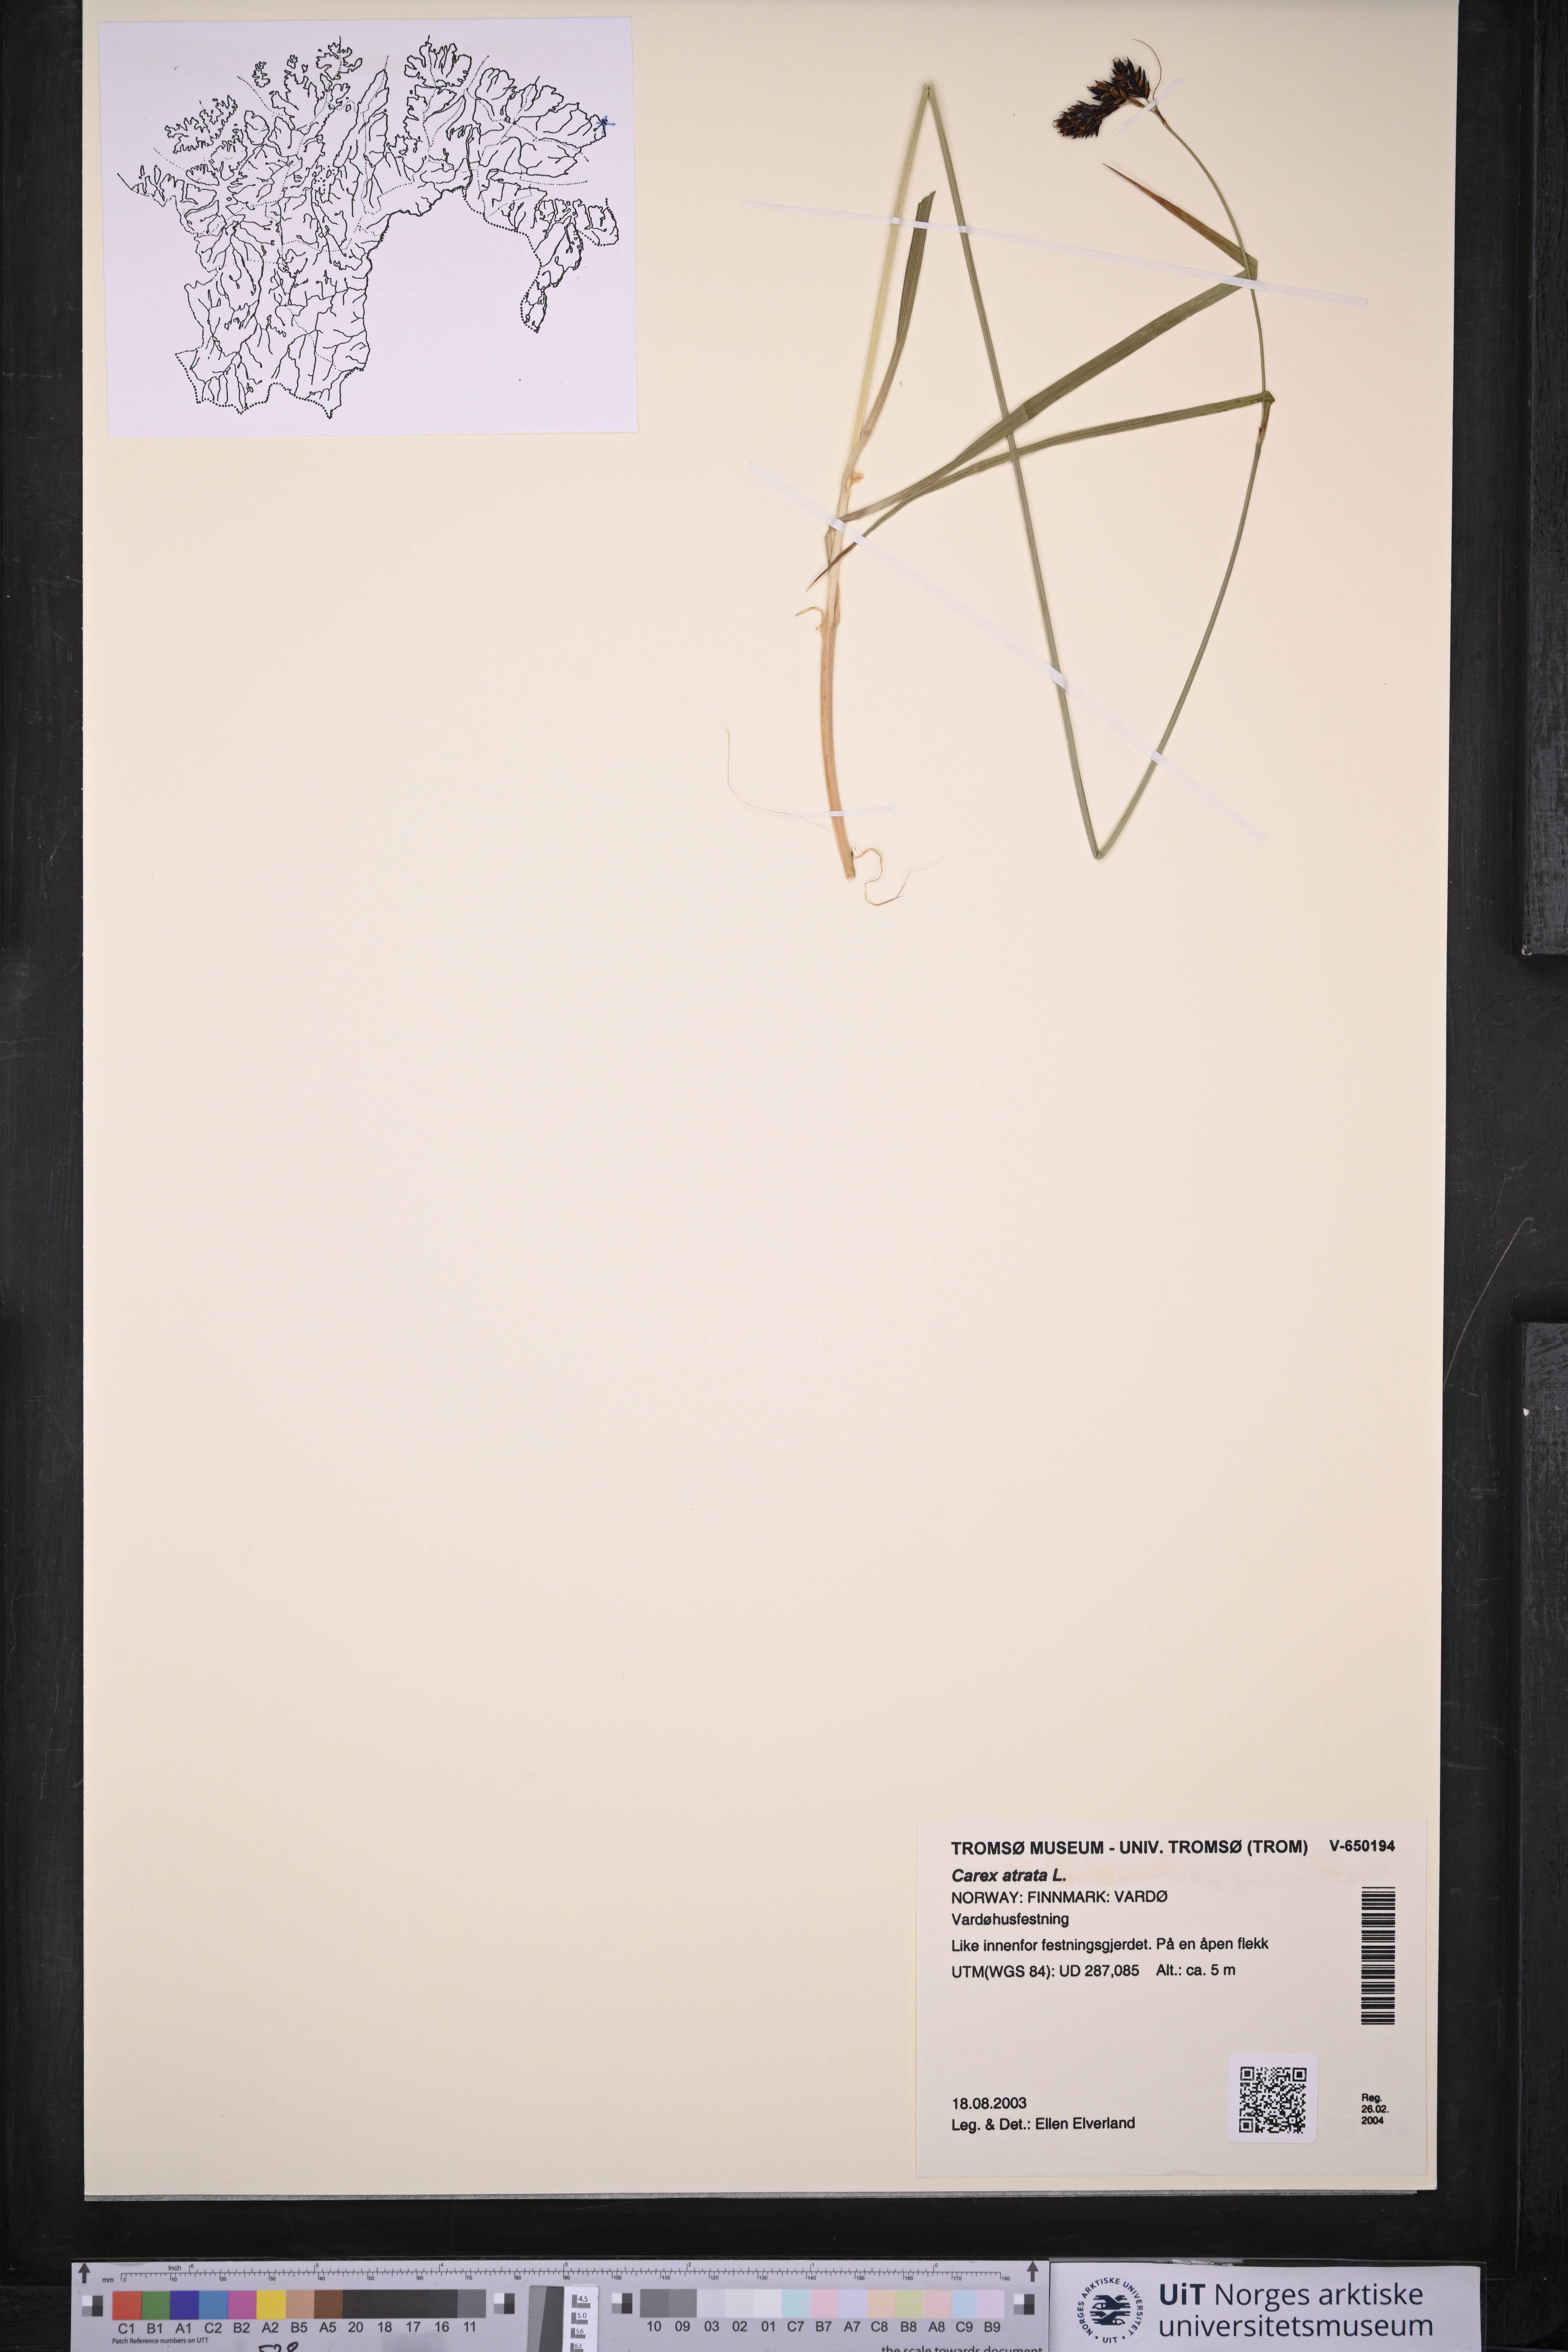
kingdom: Plantae
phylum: Tracheophyta
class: Liliopsida
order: Poales
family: Cyperaceae
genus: Carex
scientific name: Carex atrata
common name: Black alpine sedge
